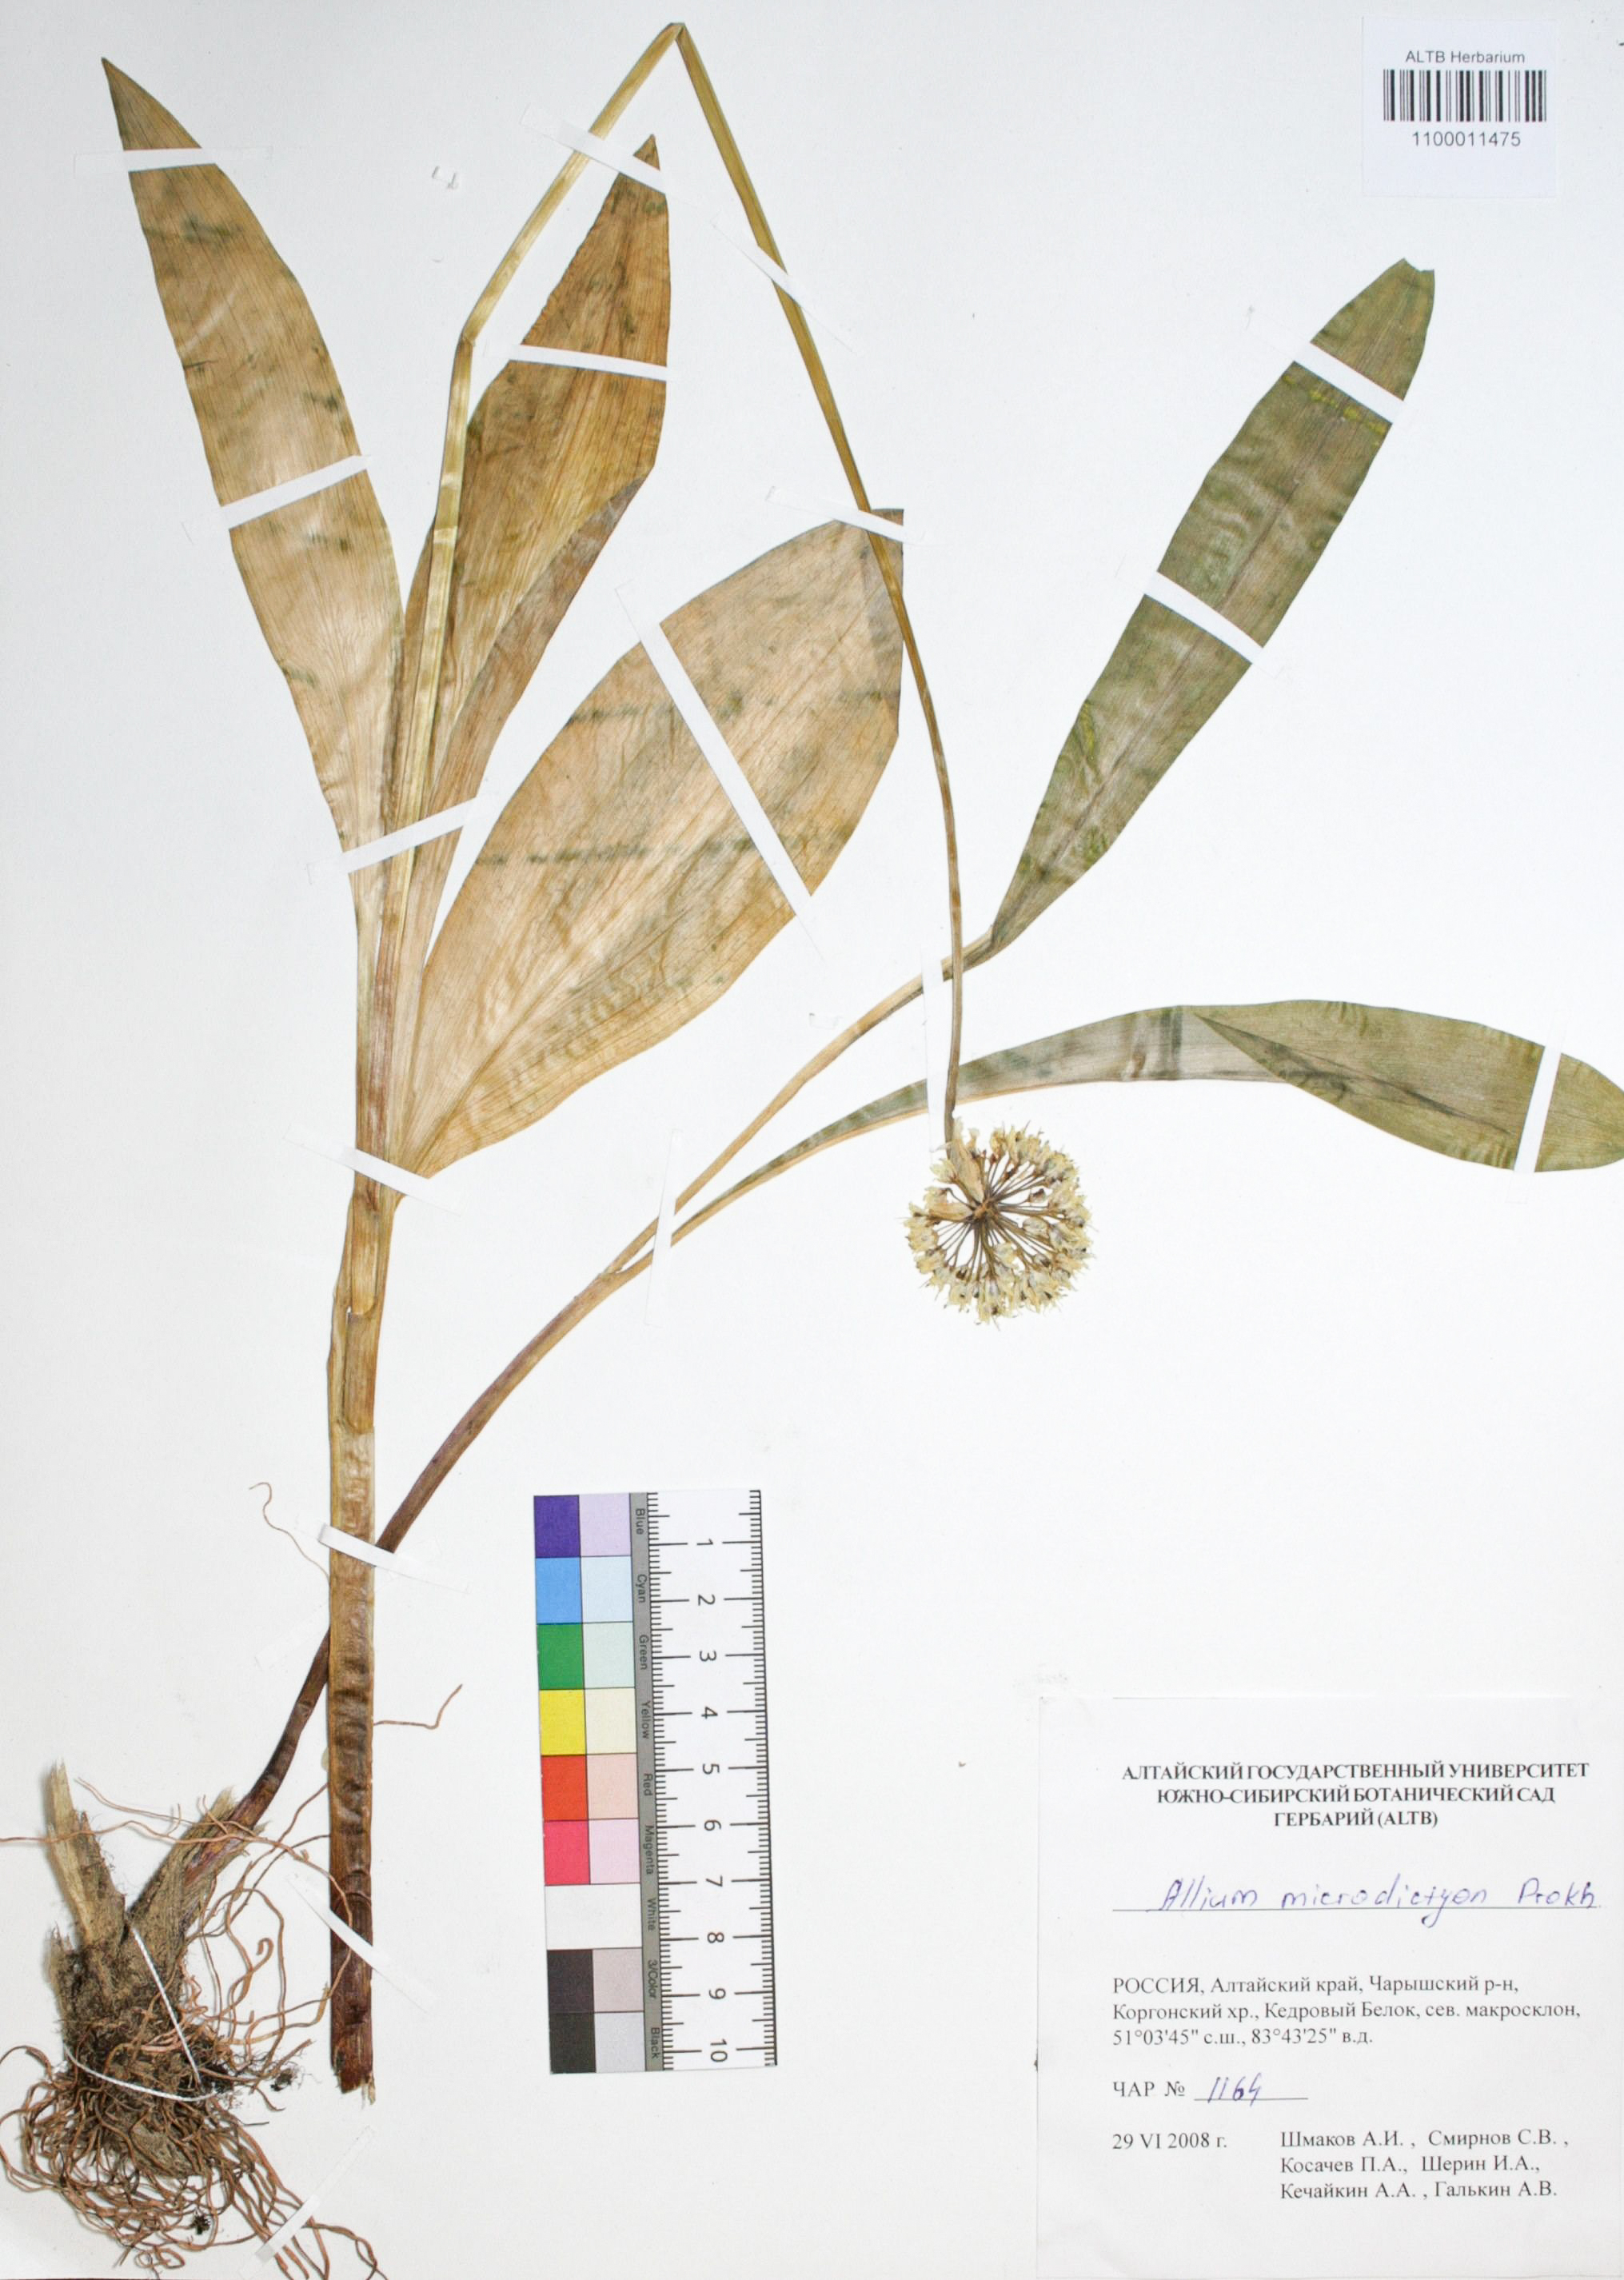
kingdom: Plantae
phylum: Tracheophyta
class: Liliopsida
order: Asparagales
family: Amaryllidaceae
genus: Allium
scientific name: Allium microdictyon
